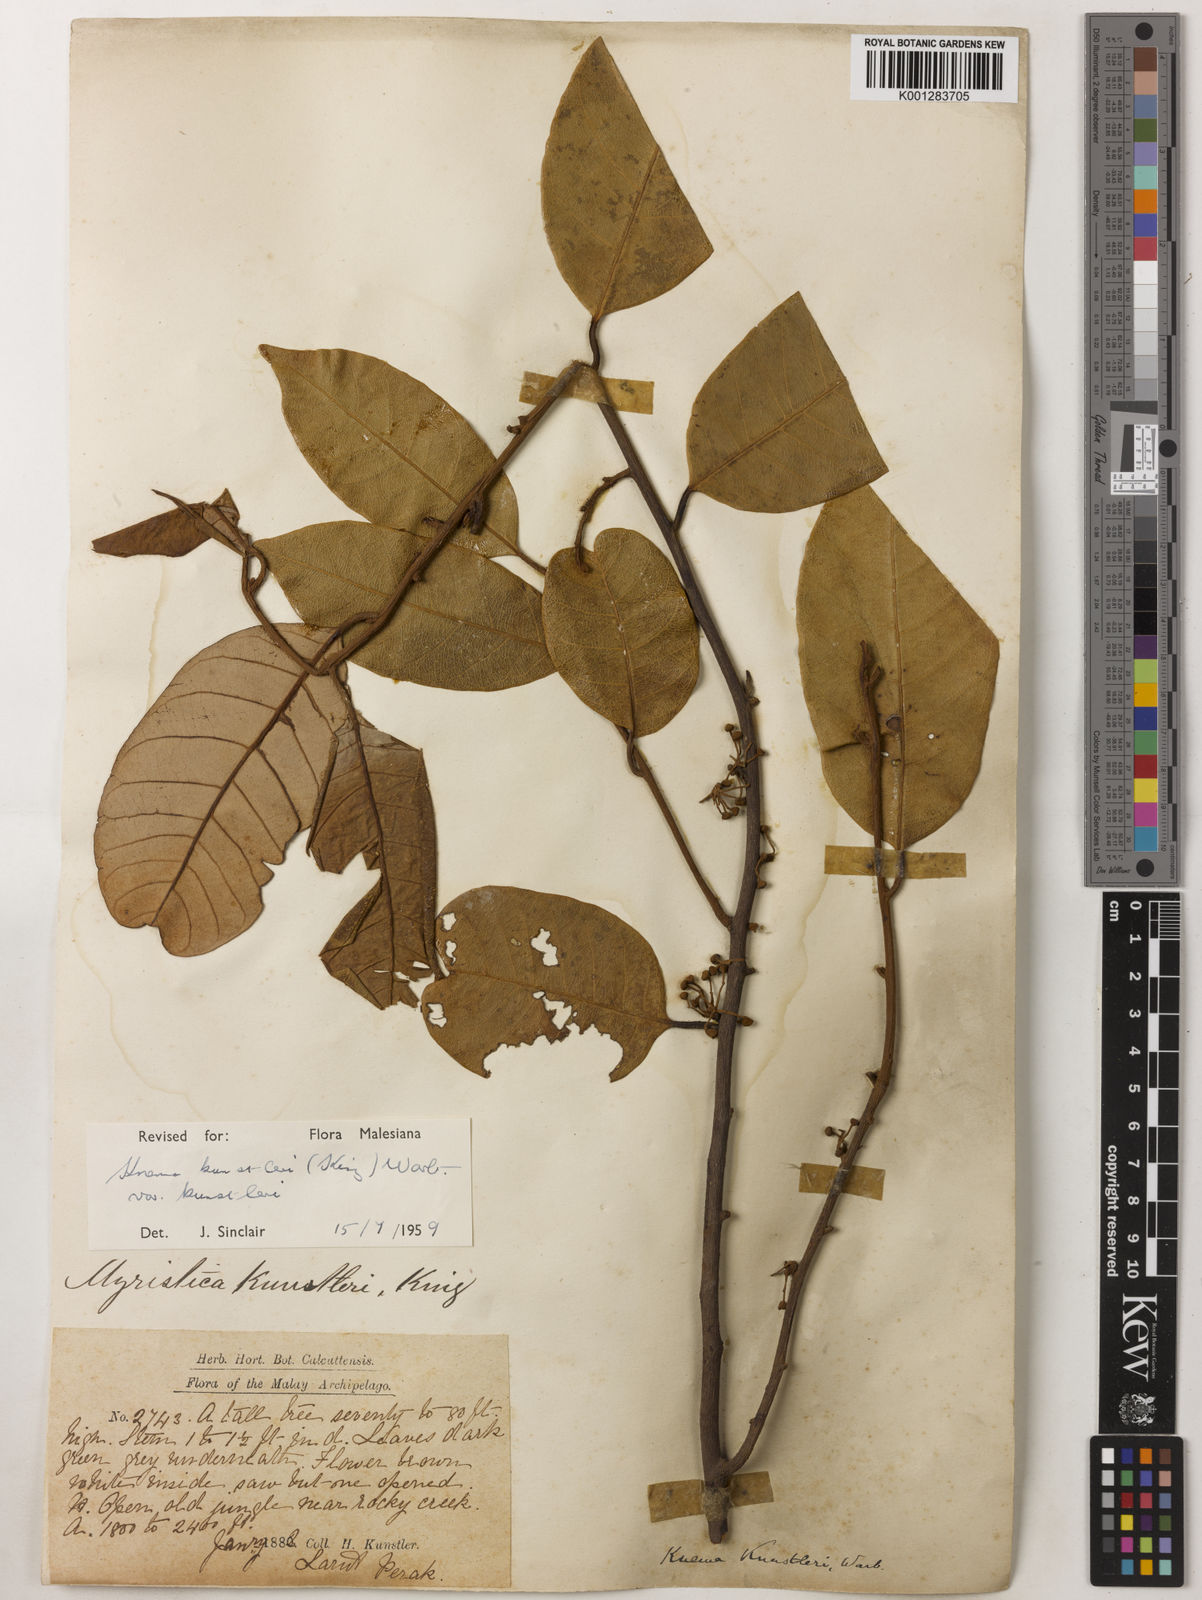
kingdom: Plantae
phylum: Tracheophyta
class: Magnoliopsida
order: Magnoliales
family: Myristicaceae
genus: Knema
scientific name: Knema kunstleri
